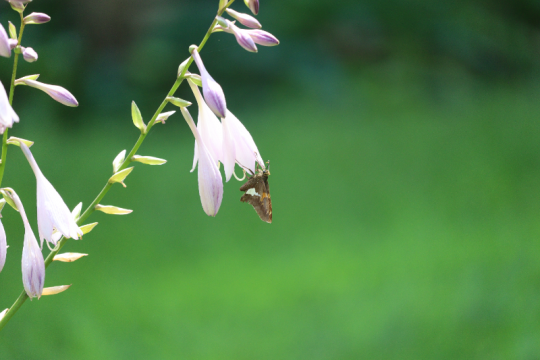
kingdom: Animalia
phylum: Arthropoda
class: Insecta
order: Lepidoptera
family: Hesperiidae
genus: Epargyreus
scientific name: Epargyreus clarus
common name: Silver-spotted Skipper
